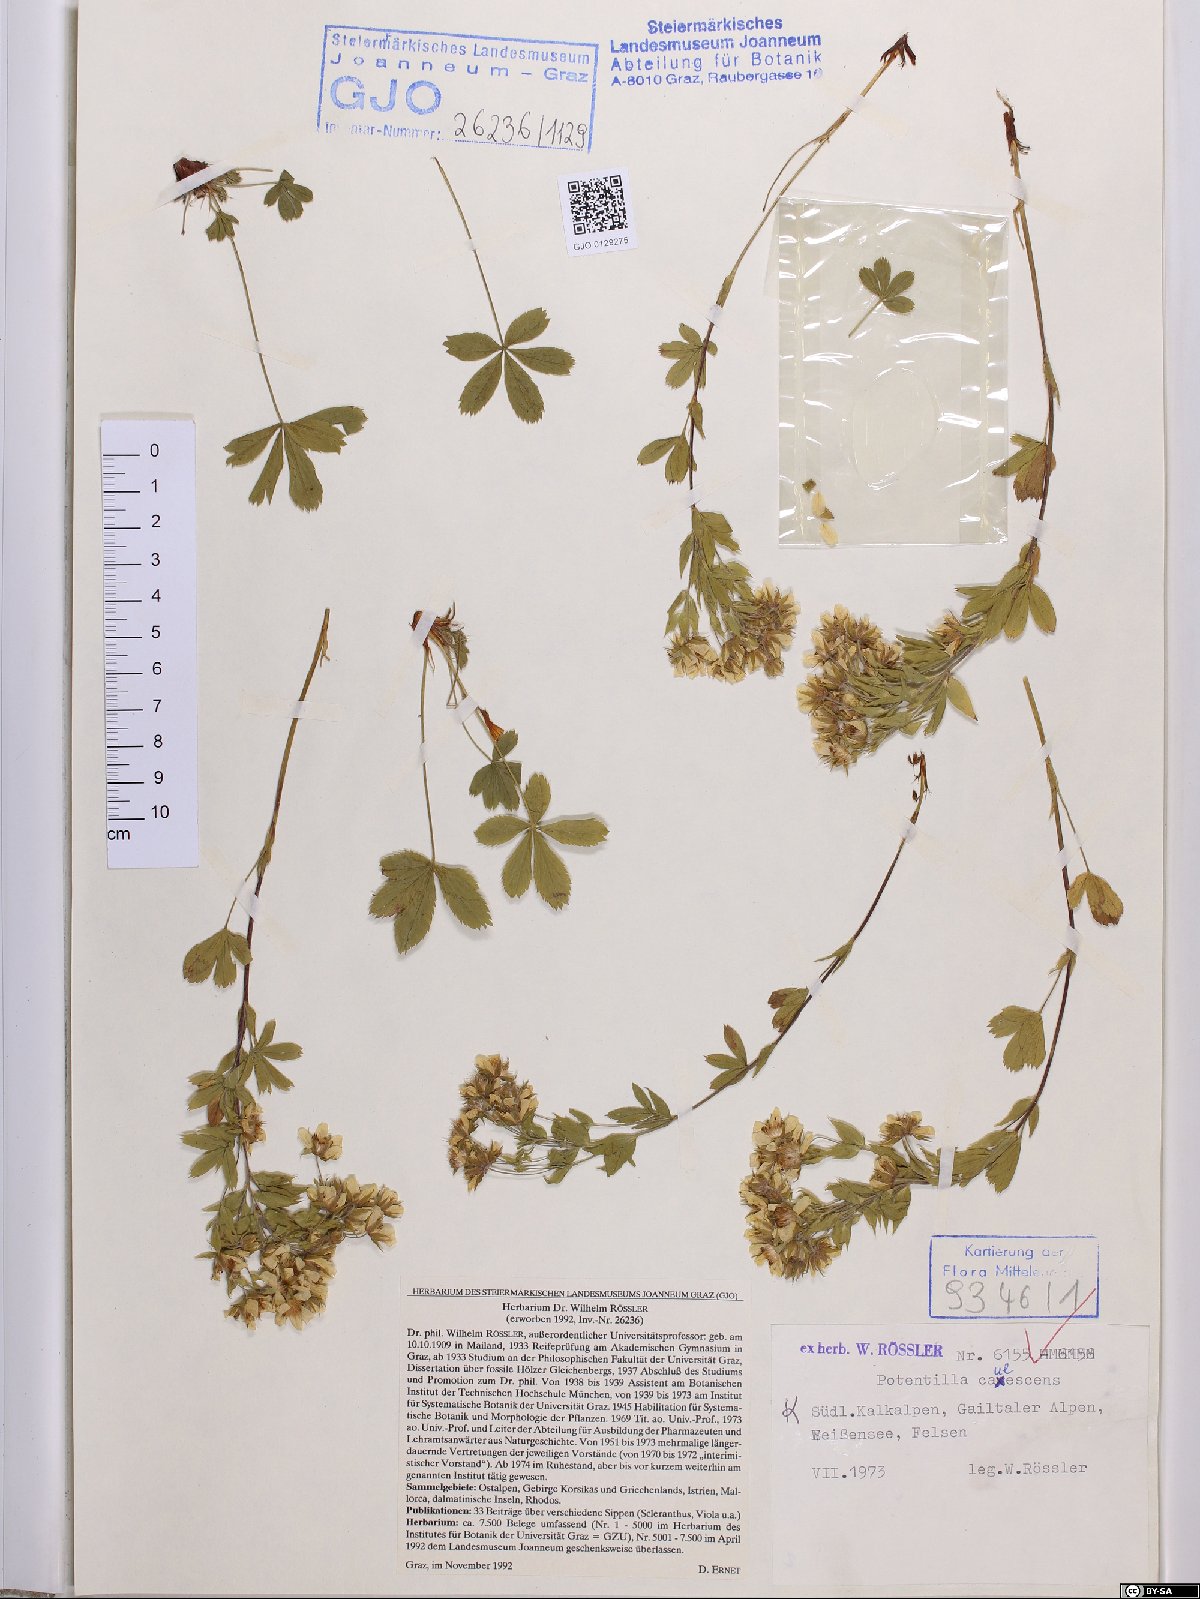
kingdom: Plantae
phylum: Tracheophyta
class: Magnoliopsida
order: Rosales
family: Rosaceae
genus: Potentilla
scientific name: Potentilla caulescens
